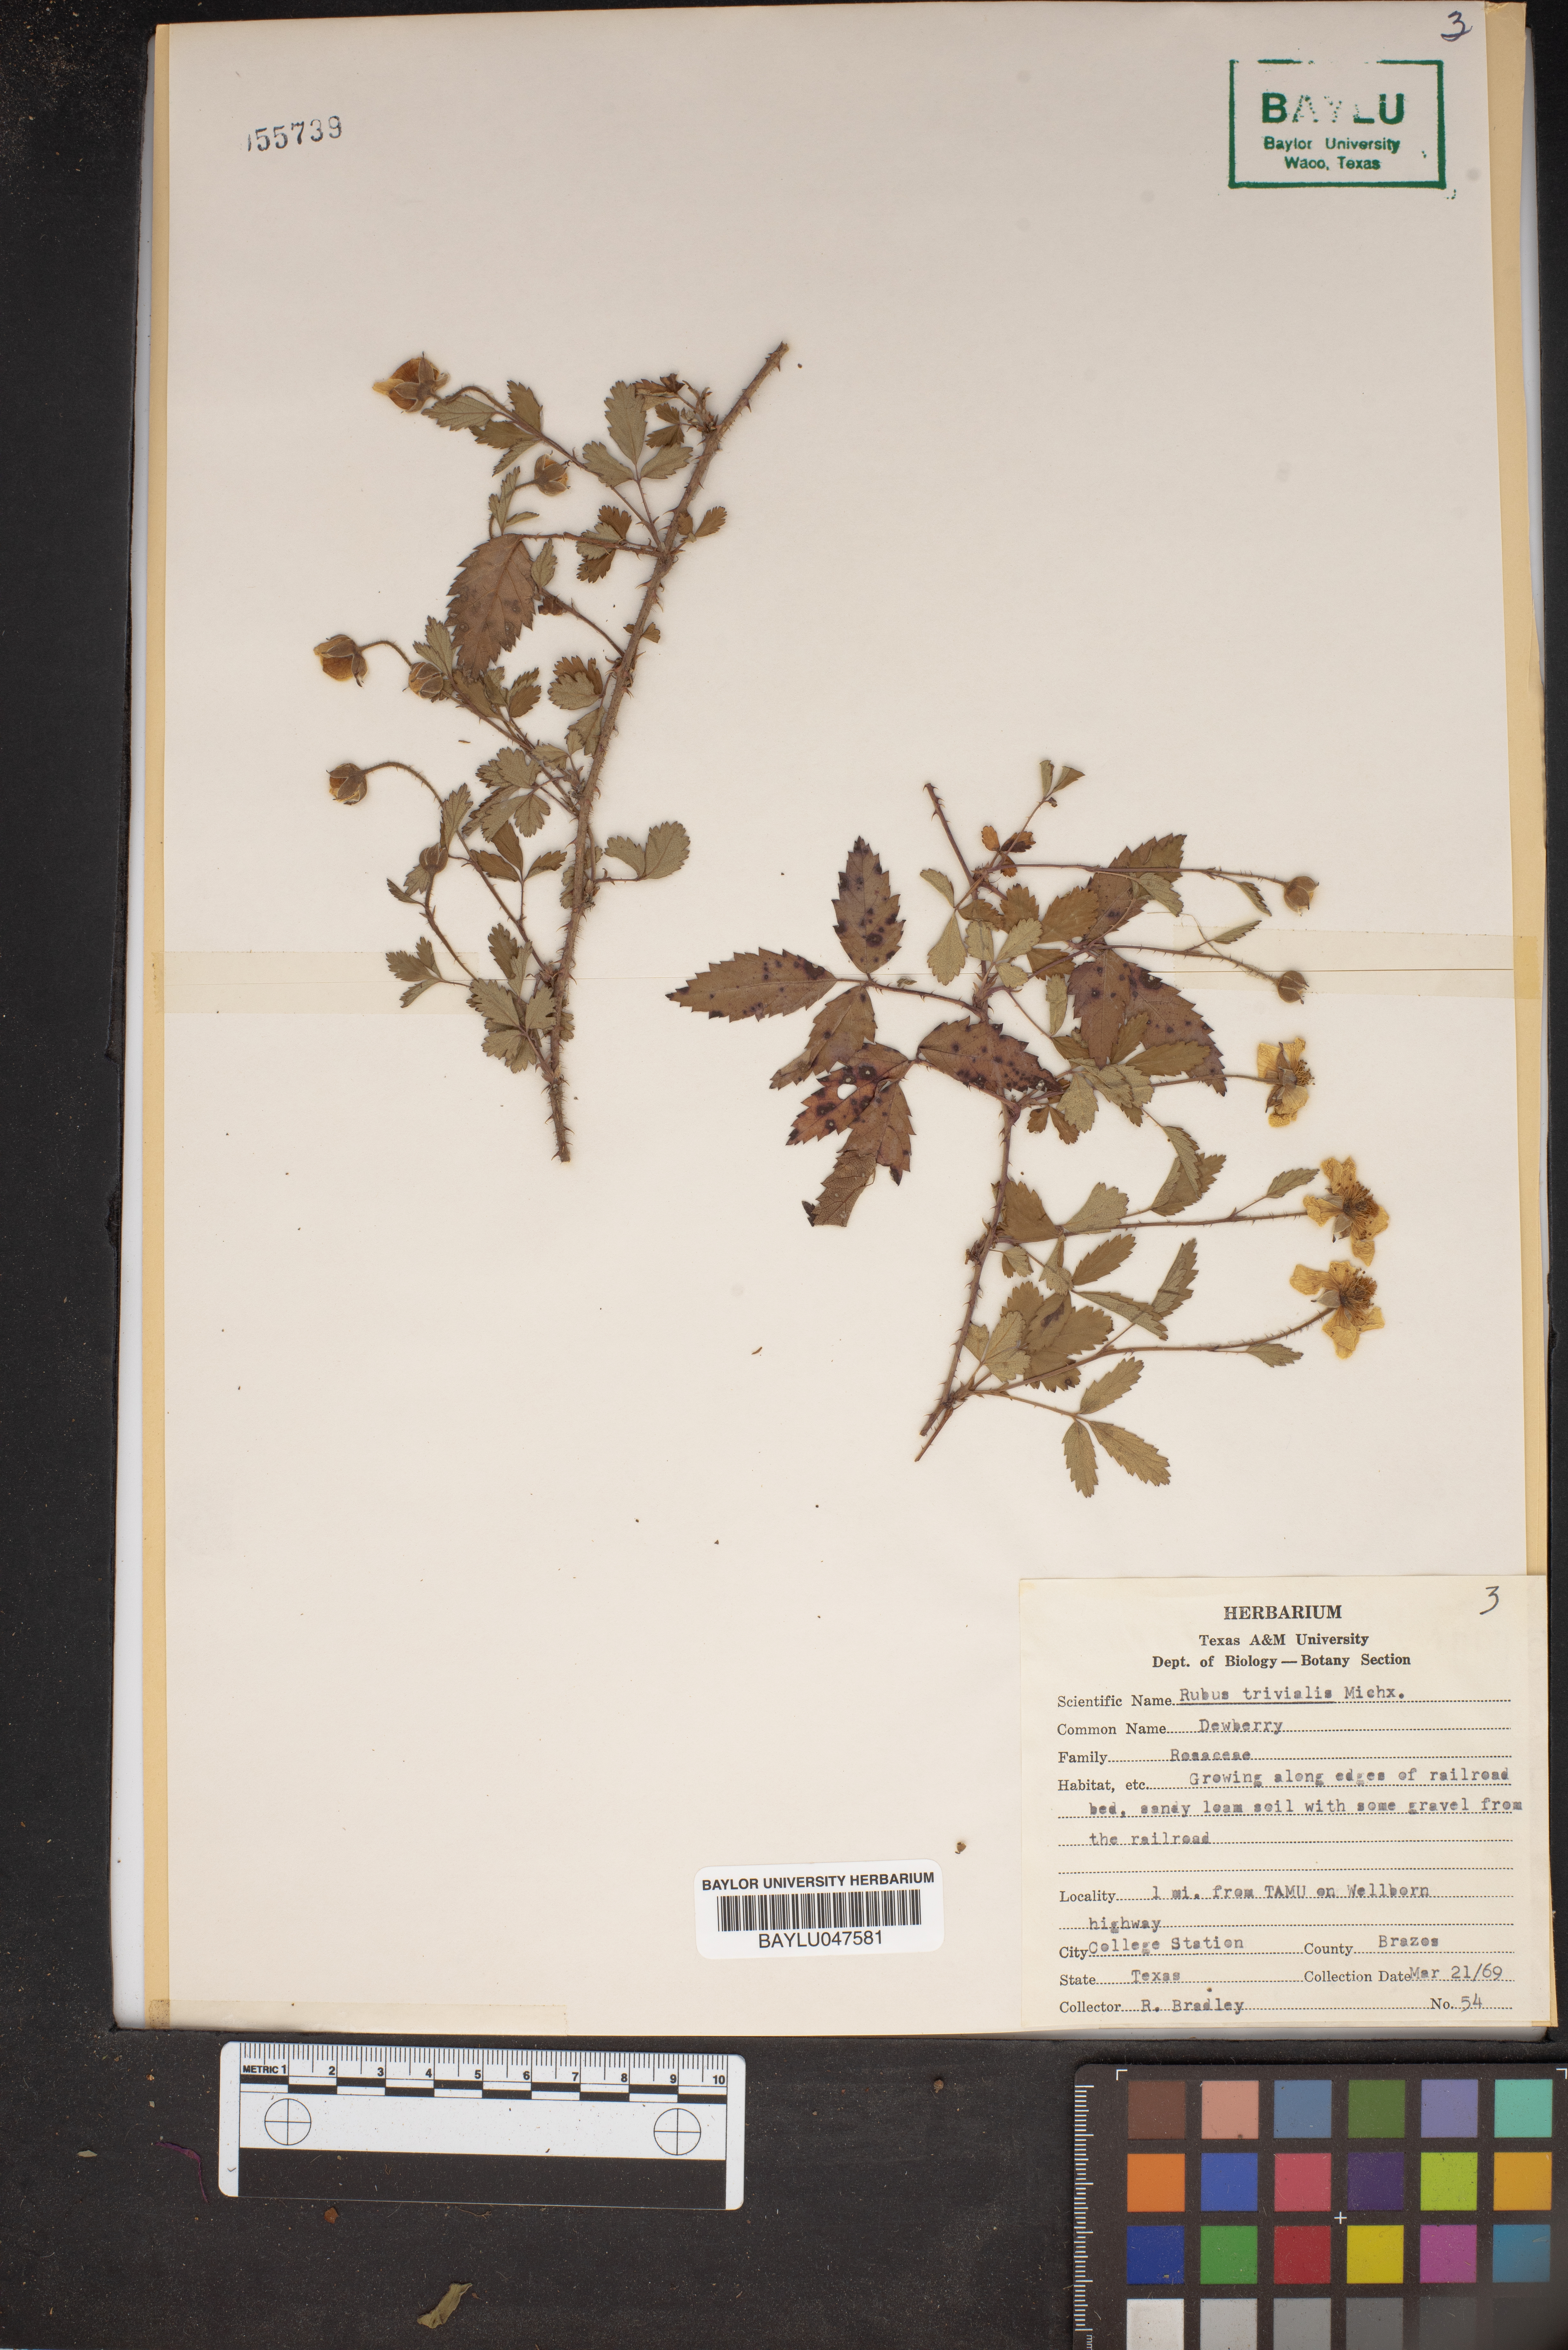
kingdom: Plantae
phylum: Tracheophyta
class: Magnoliopsida
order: Rosales
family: Rosaceae
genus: Rubus
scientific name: Rubus trivialis
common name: Southern dewberry
